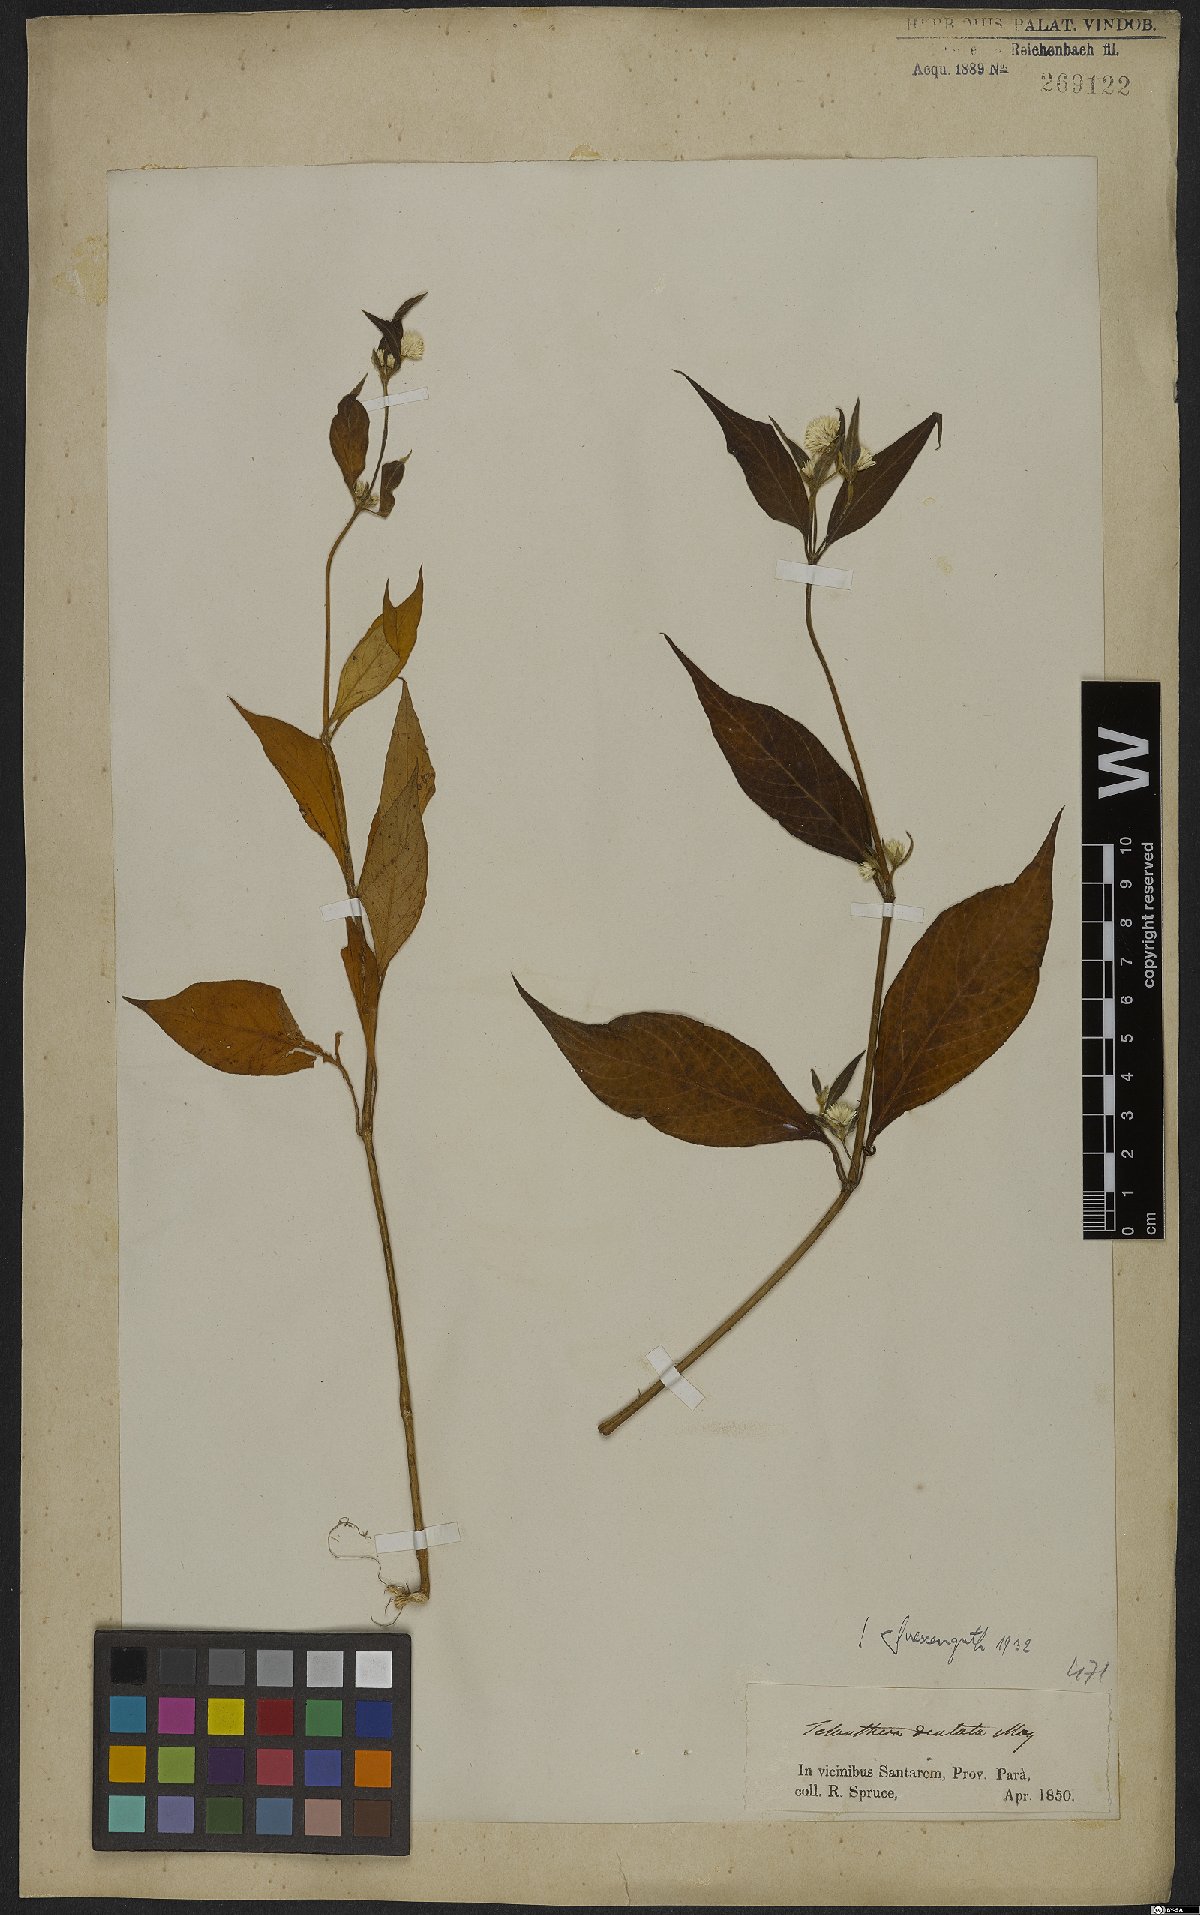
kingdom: Plantae
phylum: Tracheophyta
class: Magnoliopsida
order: Caryophyllales
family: Amaranthaceae
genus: Alternanthera
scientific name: Alternanthera ramosissima
